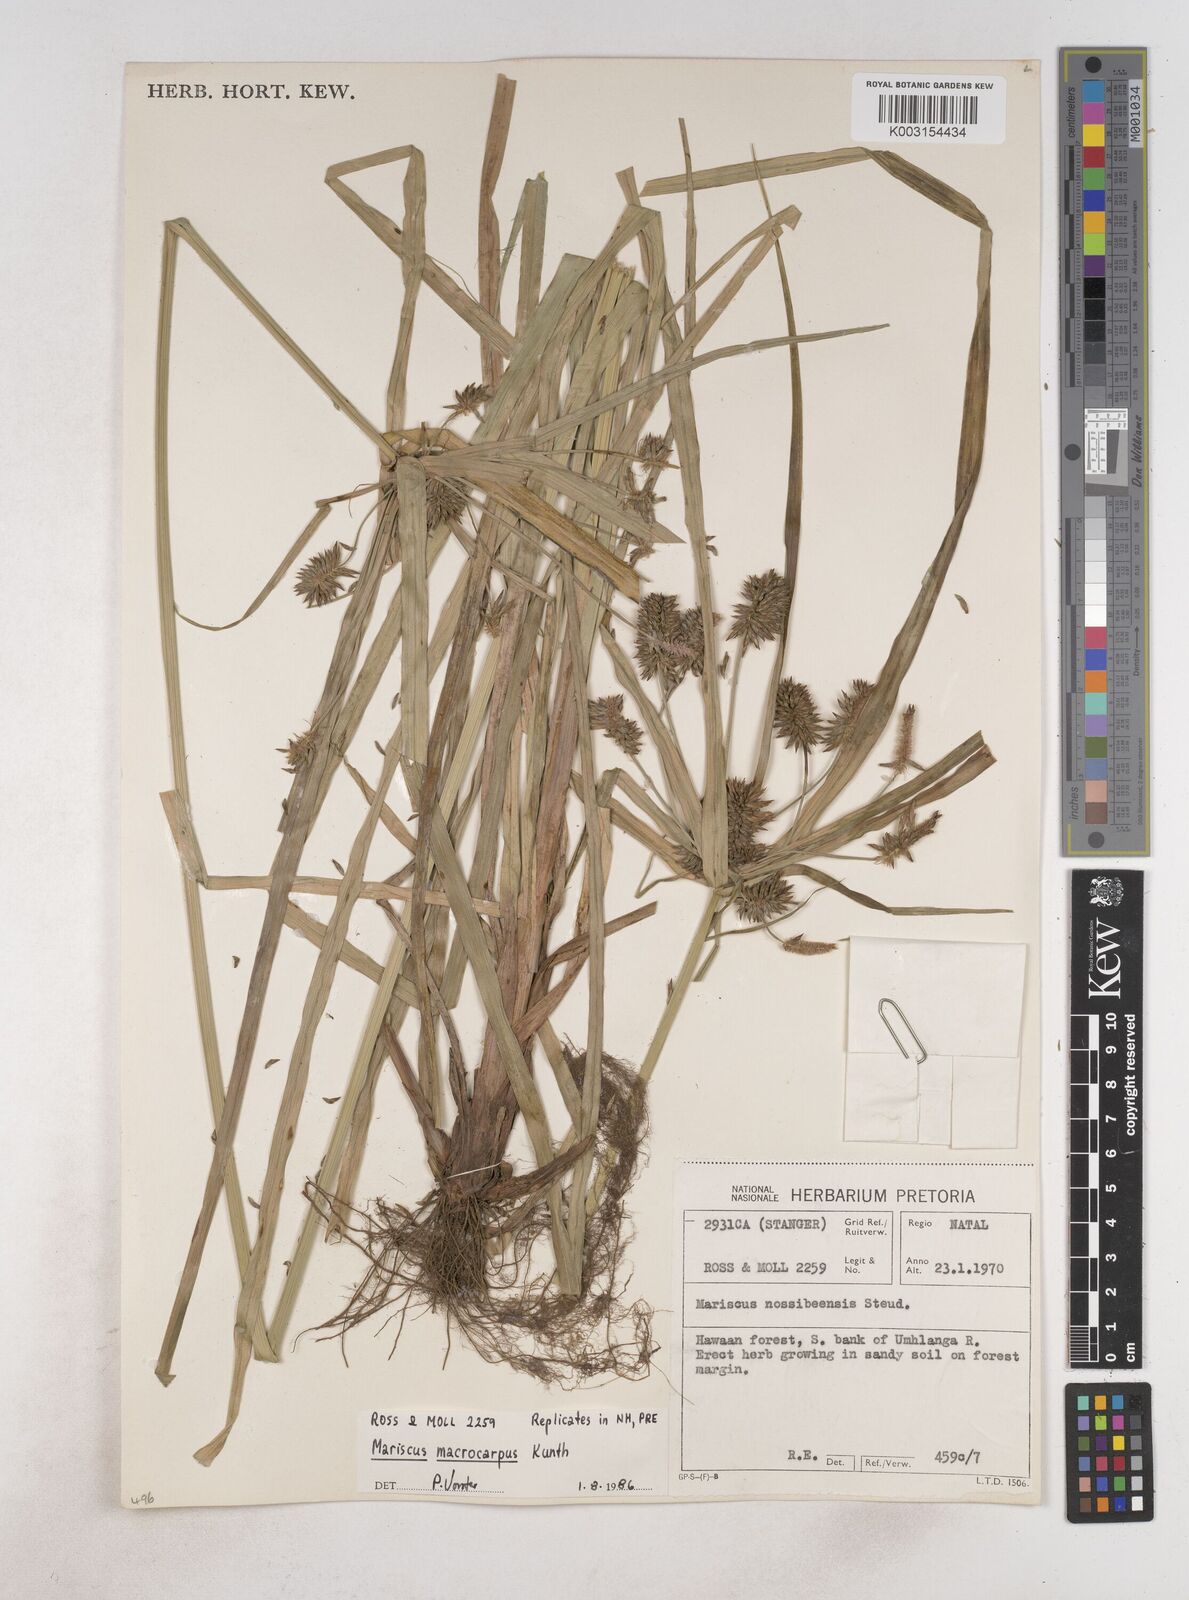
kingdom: Plantae
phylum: Tracheophyta
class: Liliopsida
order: Poales
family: Cyperaceae
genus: Cyperus
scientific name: Cyperus chersinus
